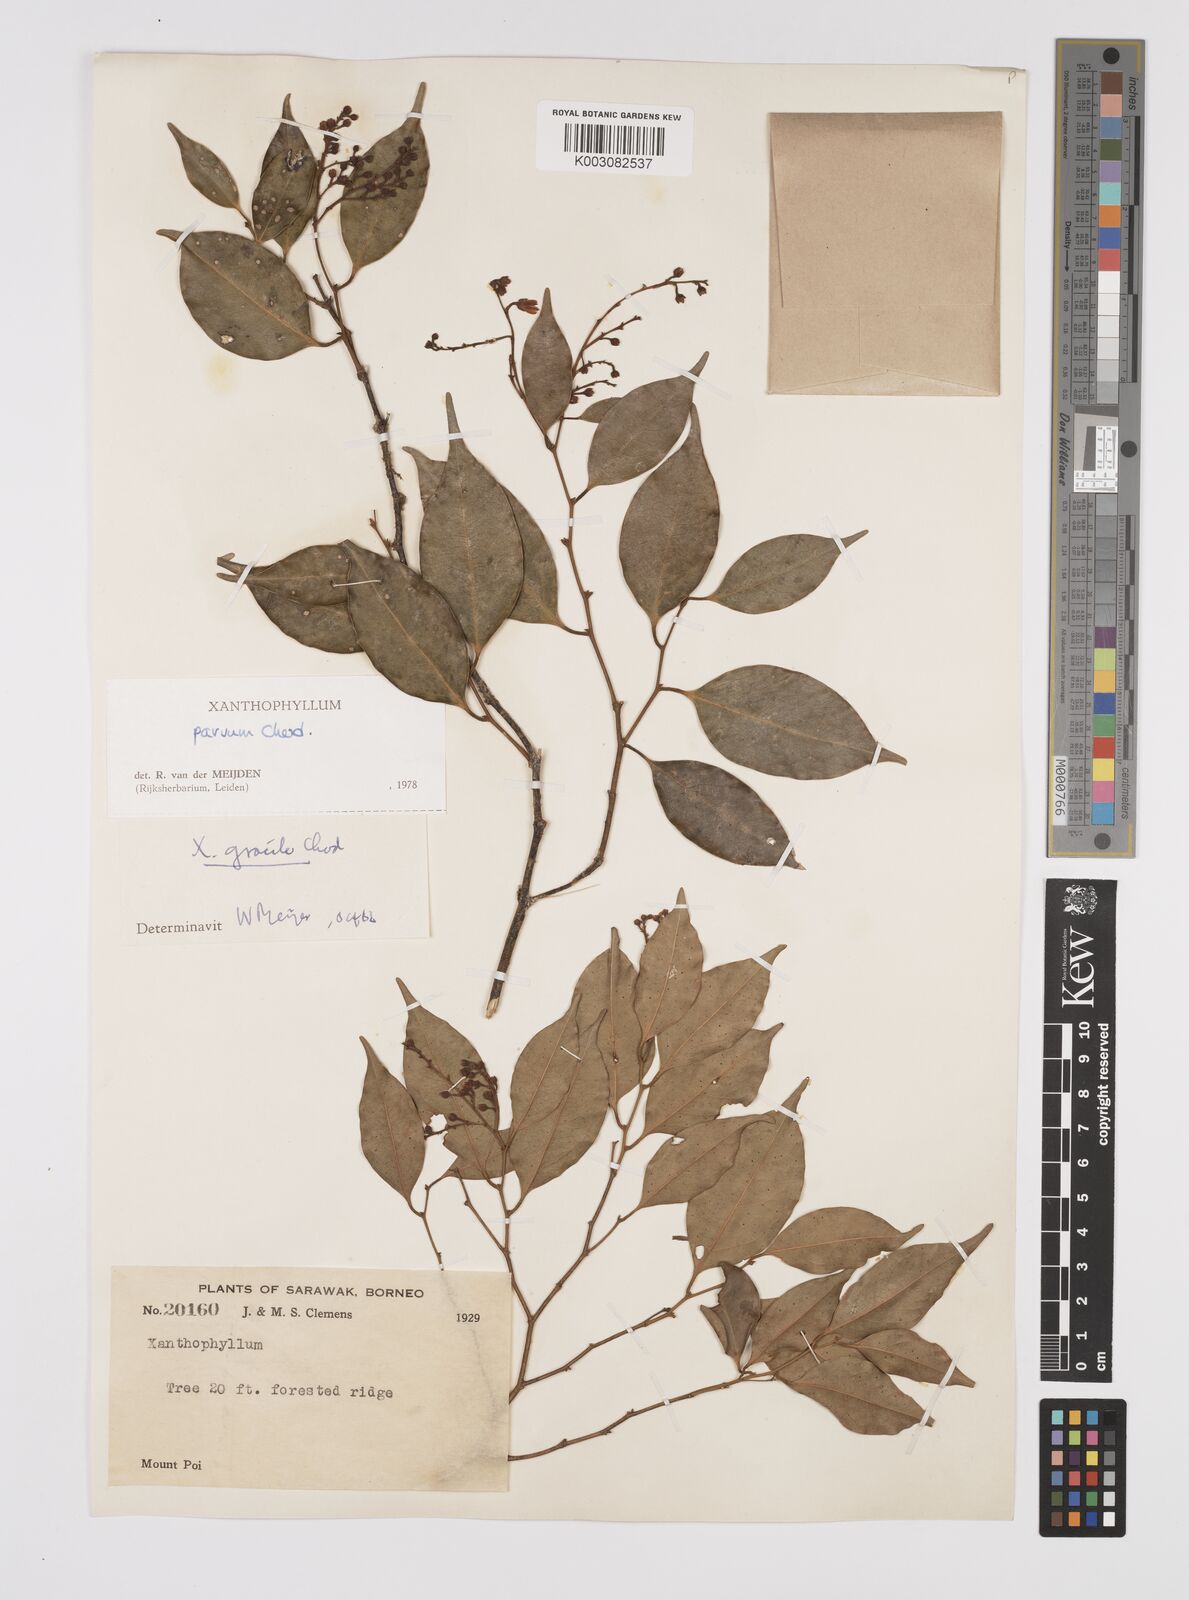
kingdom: Plantae
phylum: Tracheophyta
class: Magnoliopsida
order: Fabales
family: Polygalaceae
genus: Xanthophyllum
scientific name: Xanthophyllum griffithii
